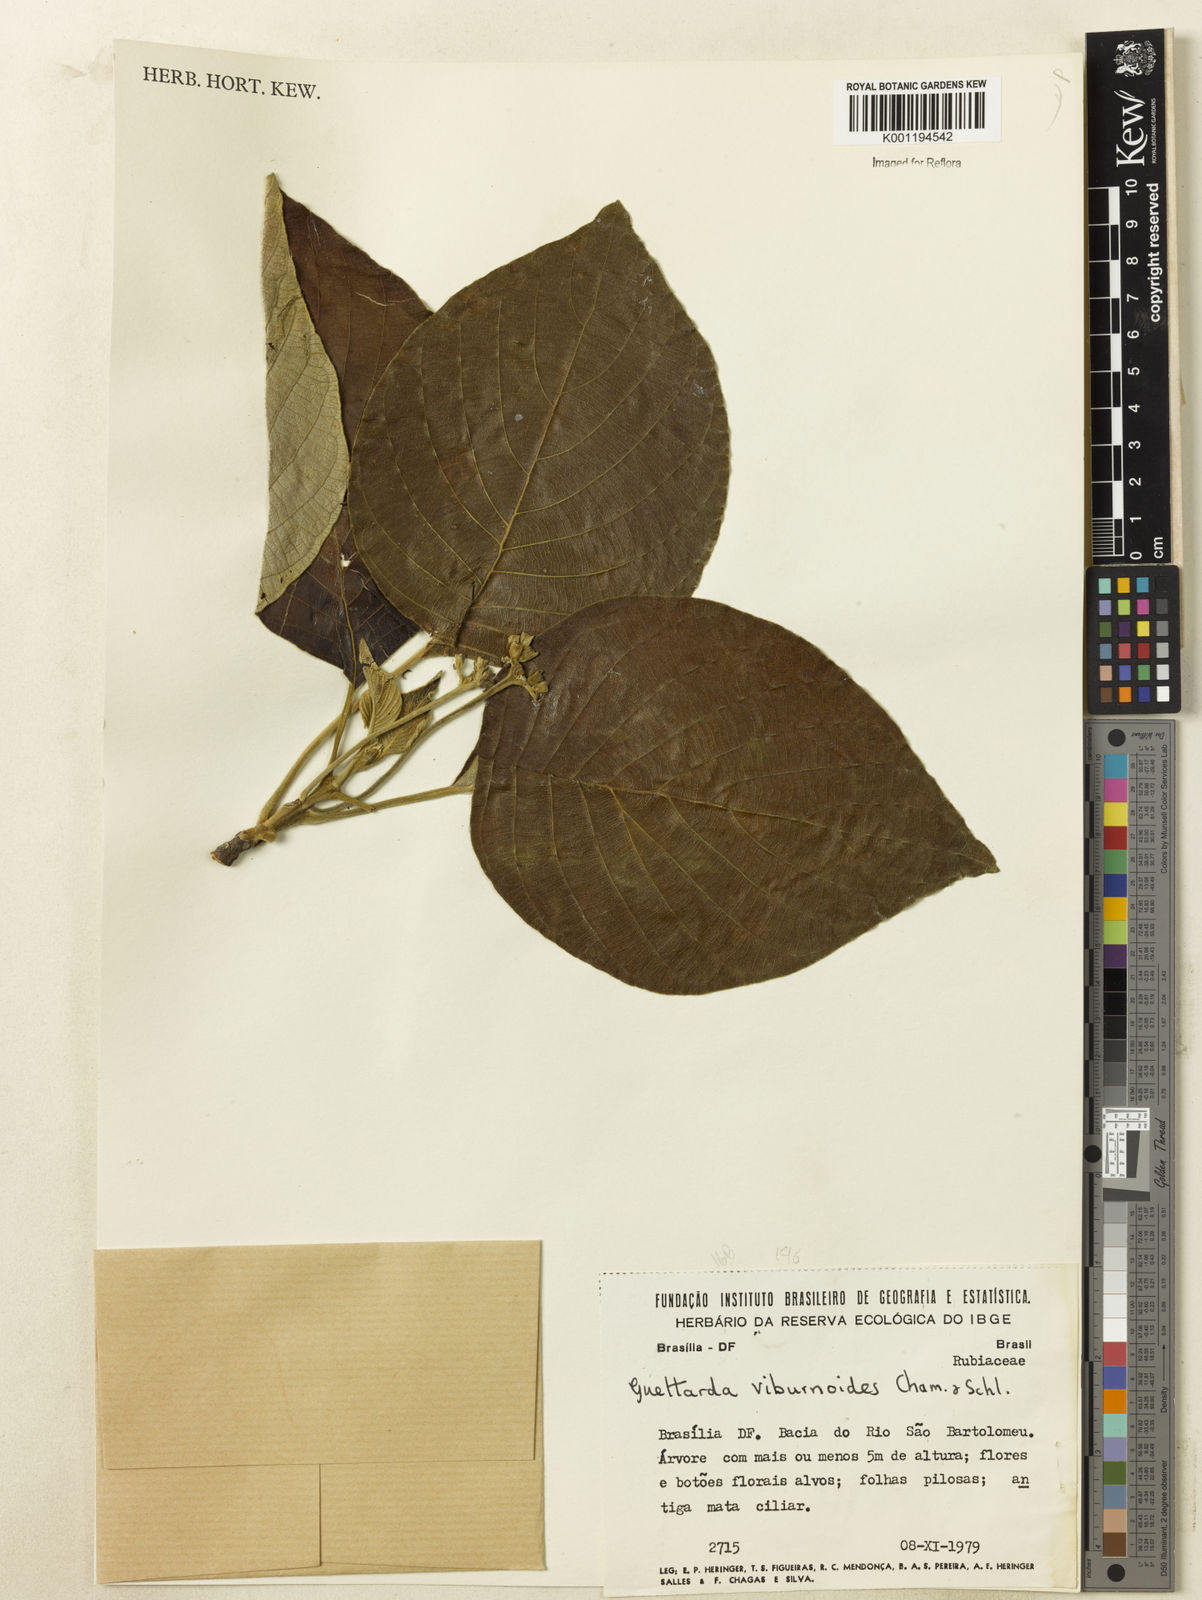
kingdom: Plantae
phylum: Tracheophyta
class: Magnoliopsida
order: Gentianales
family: Rubiaceae
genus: Guettarda
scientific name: Guettarda viburnoides
